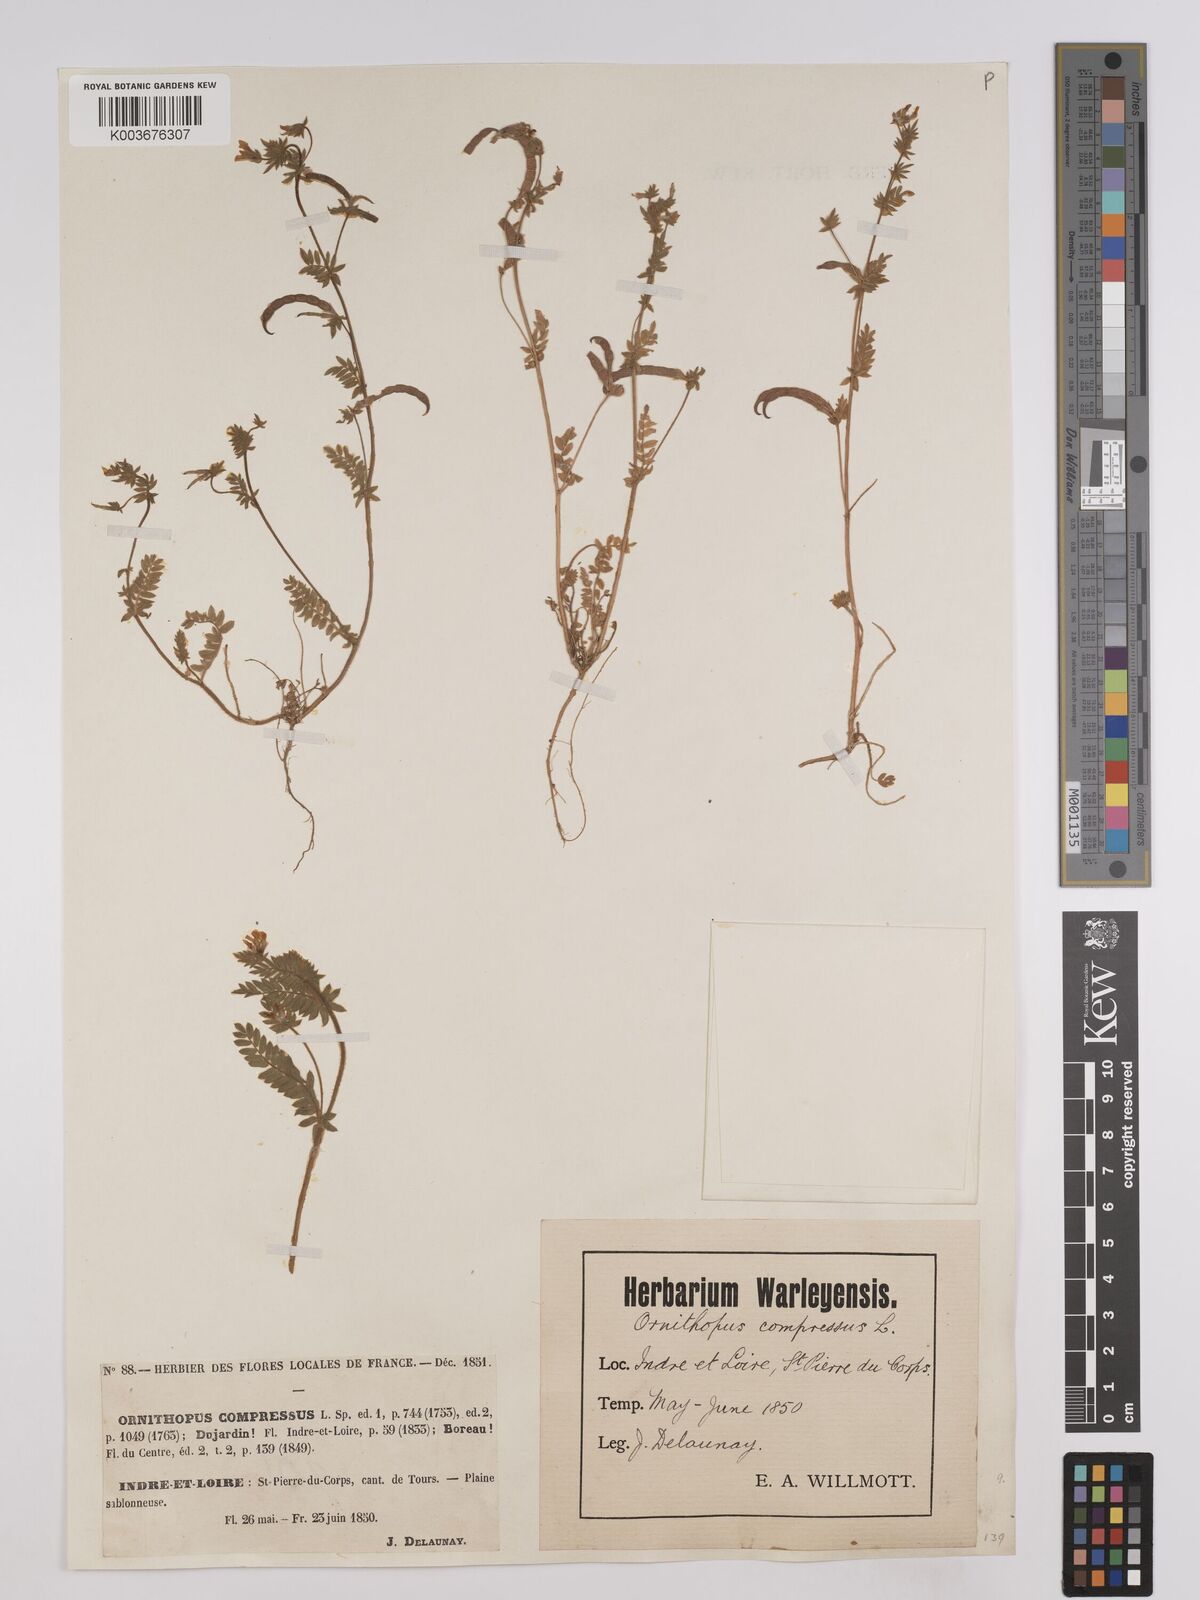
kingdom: Plantae
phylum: Tracheophyta
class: Magnoliopsida
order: Fabales
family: Fabaceae
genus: Ornithopus
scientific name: Ornithopus compressus
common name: Yellow serradella
